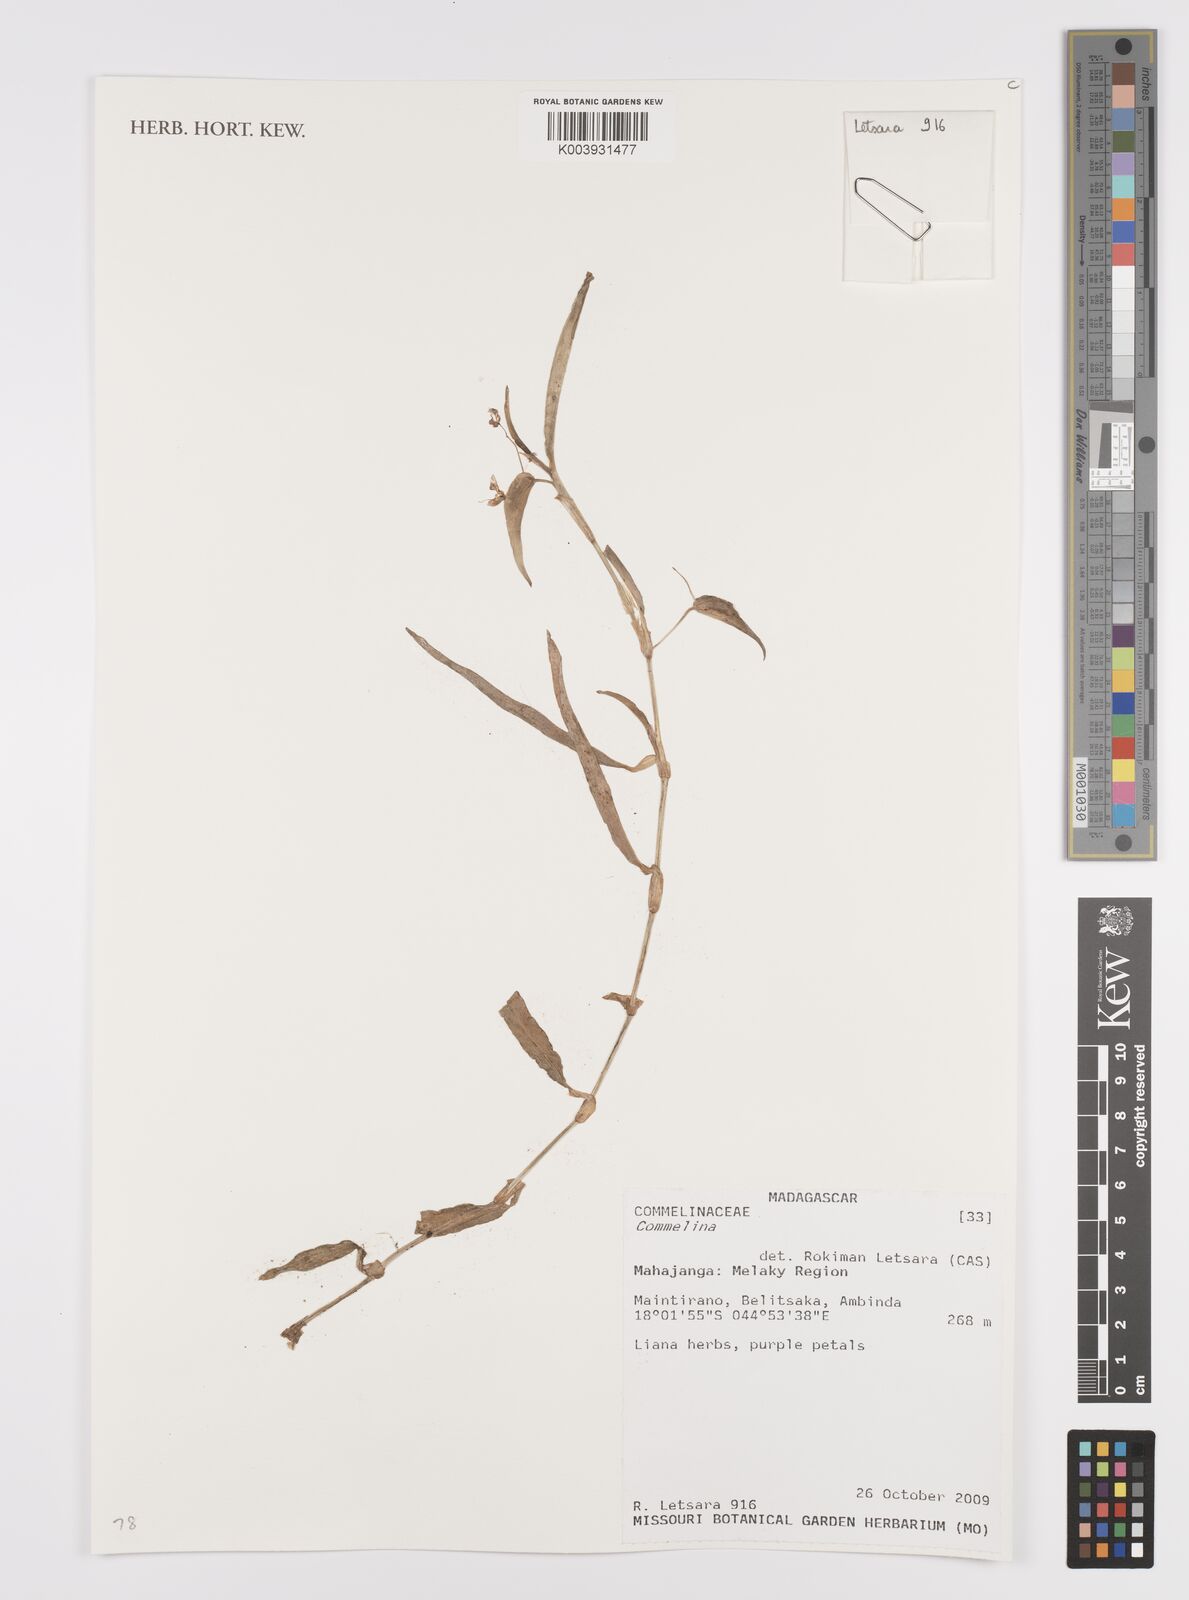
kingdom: Plantae
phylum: Tracheophyta
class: Liliopsida
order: Commelinales
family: Commelinaceae
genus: Commelina
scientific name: Commelina
